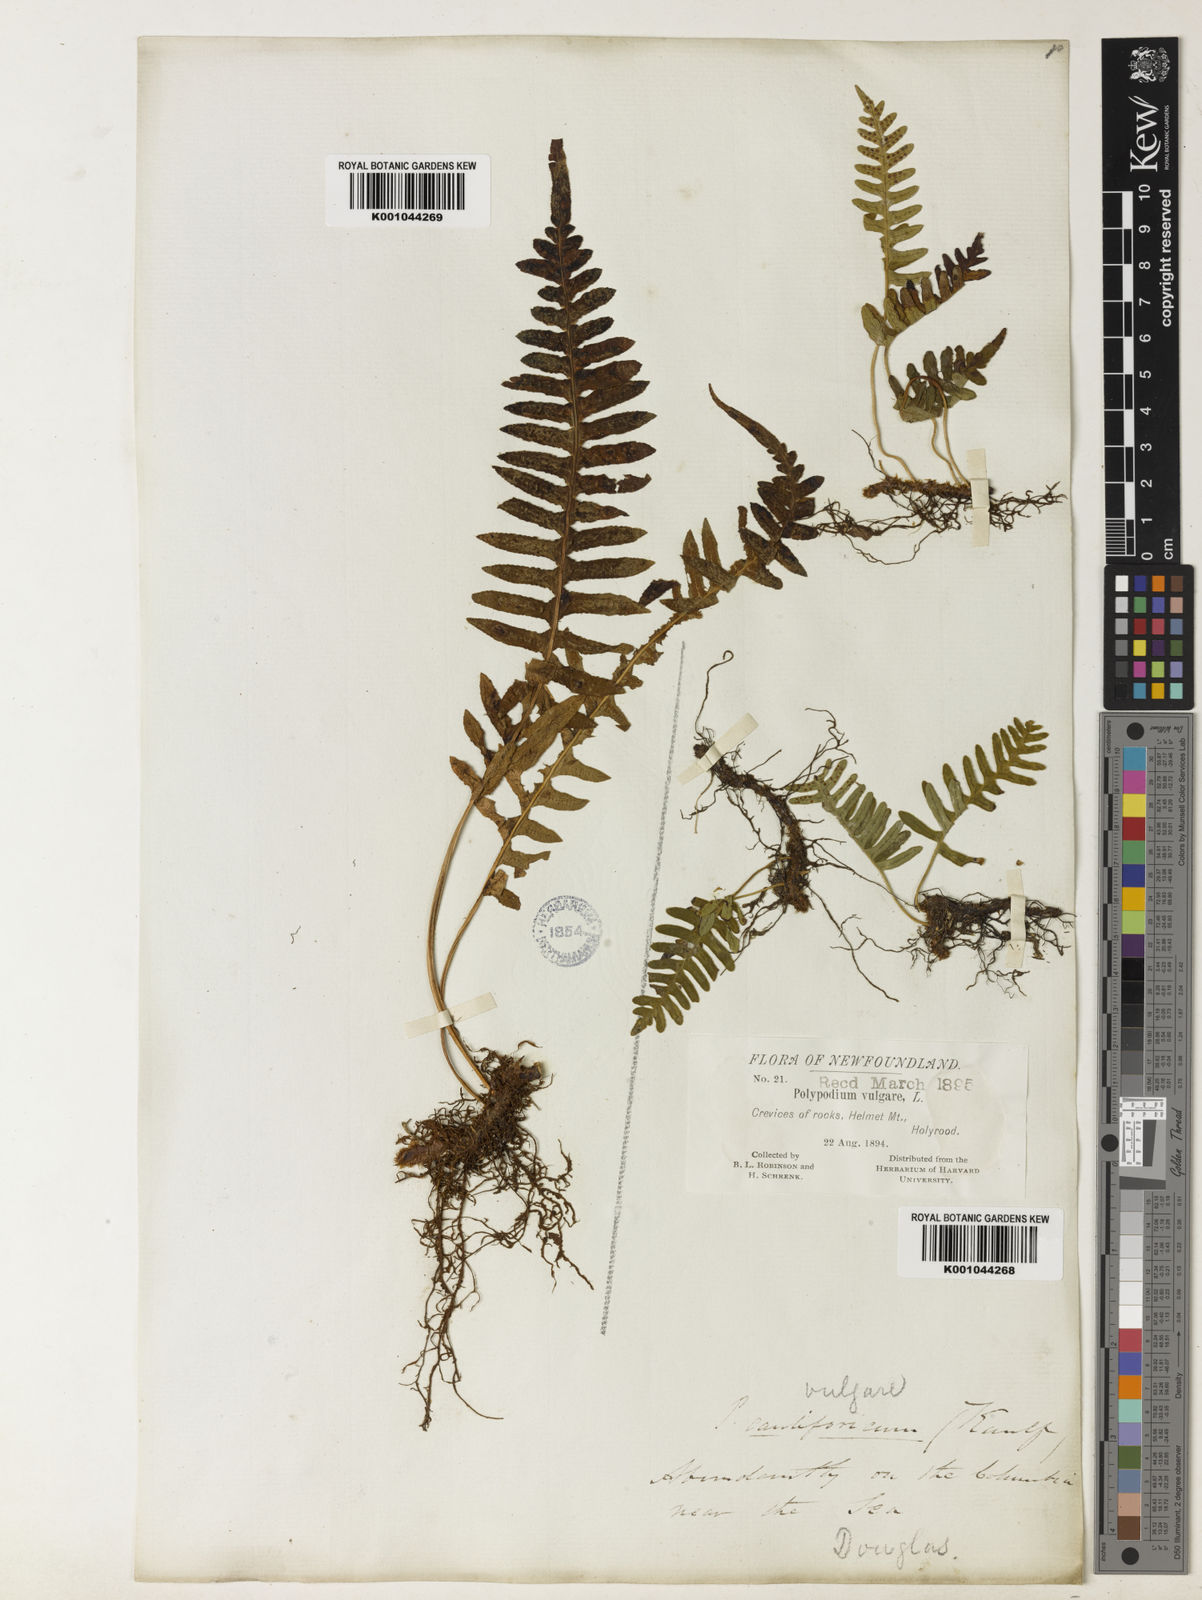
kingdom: Plantae
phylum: Tracheophyta
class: Polypodiopsida
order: Polypodiales
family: Polypodiaceae
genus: Polypodium
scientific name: Polypodium glycyrrhiza
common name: Licorice fern
